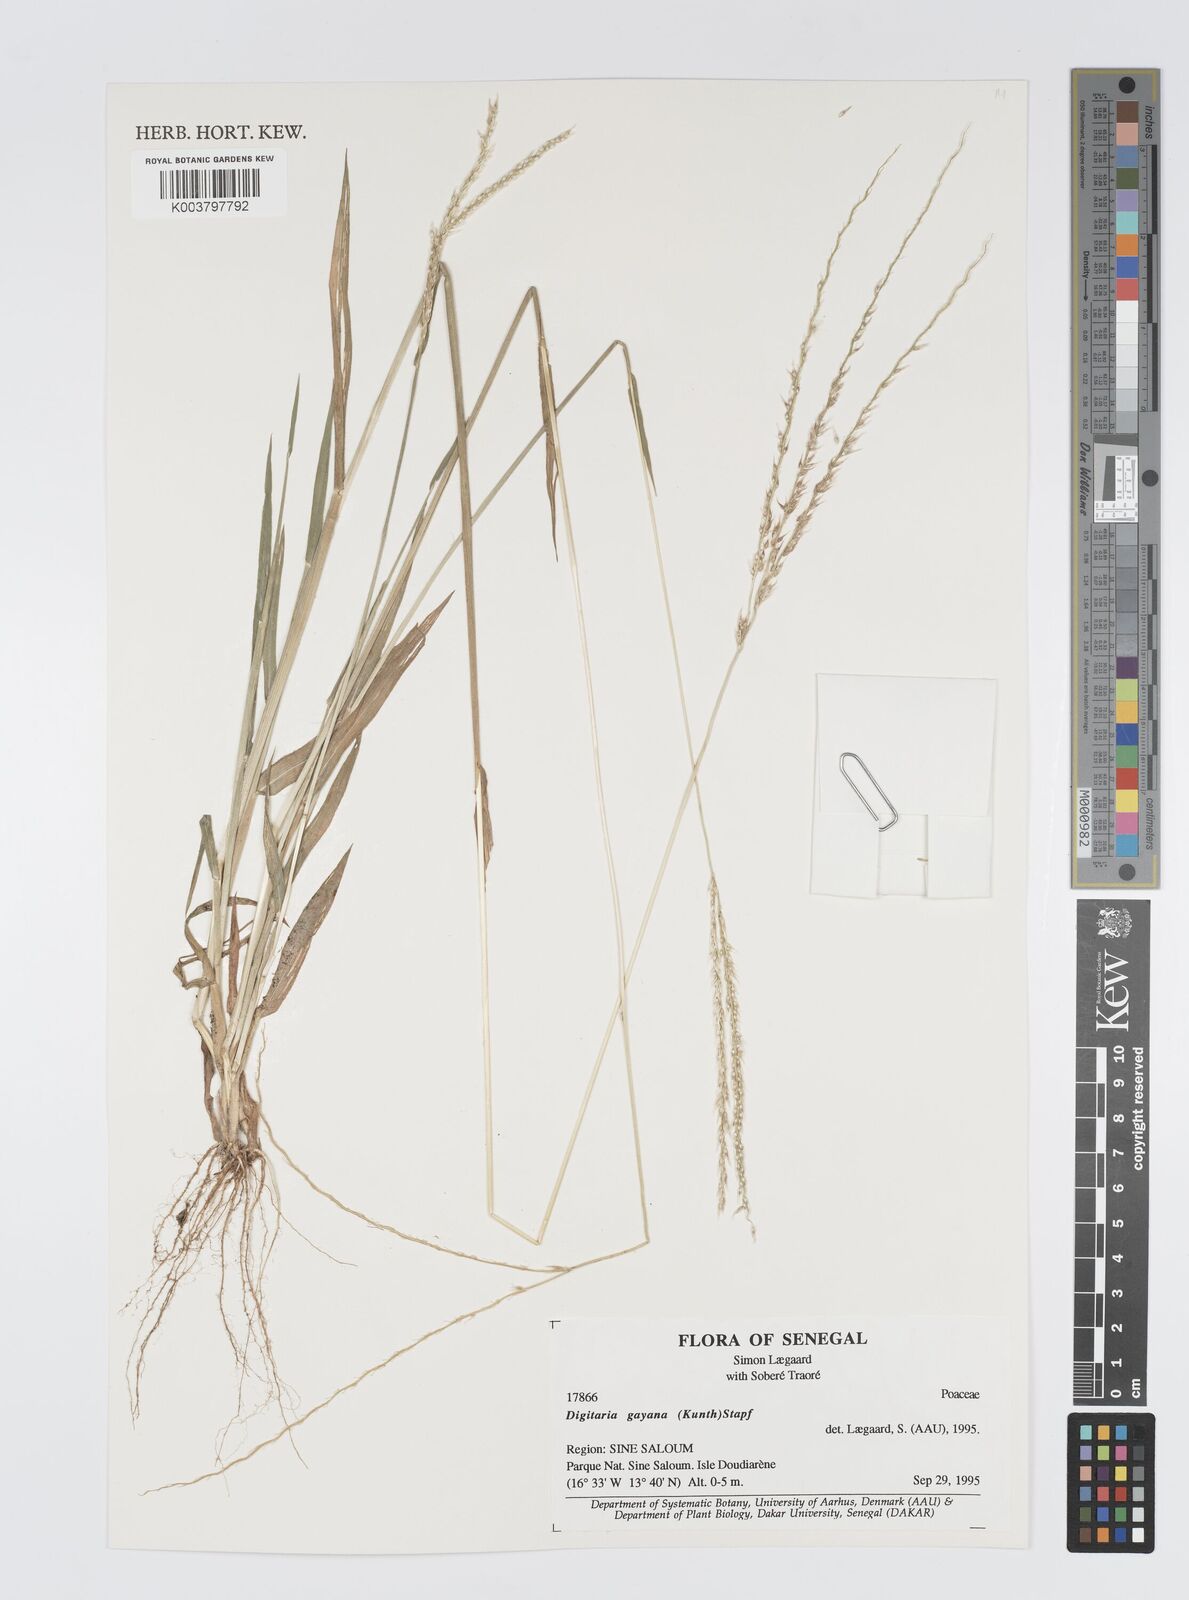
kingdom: Plantae
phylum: Tracheophyta
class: Liliopsida
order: Poales
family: Poaceae
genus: Digitaria
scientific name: Digitaria gayana
